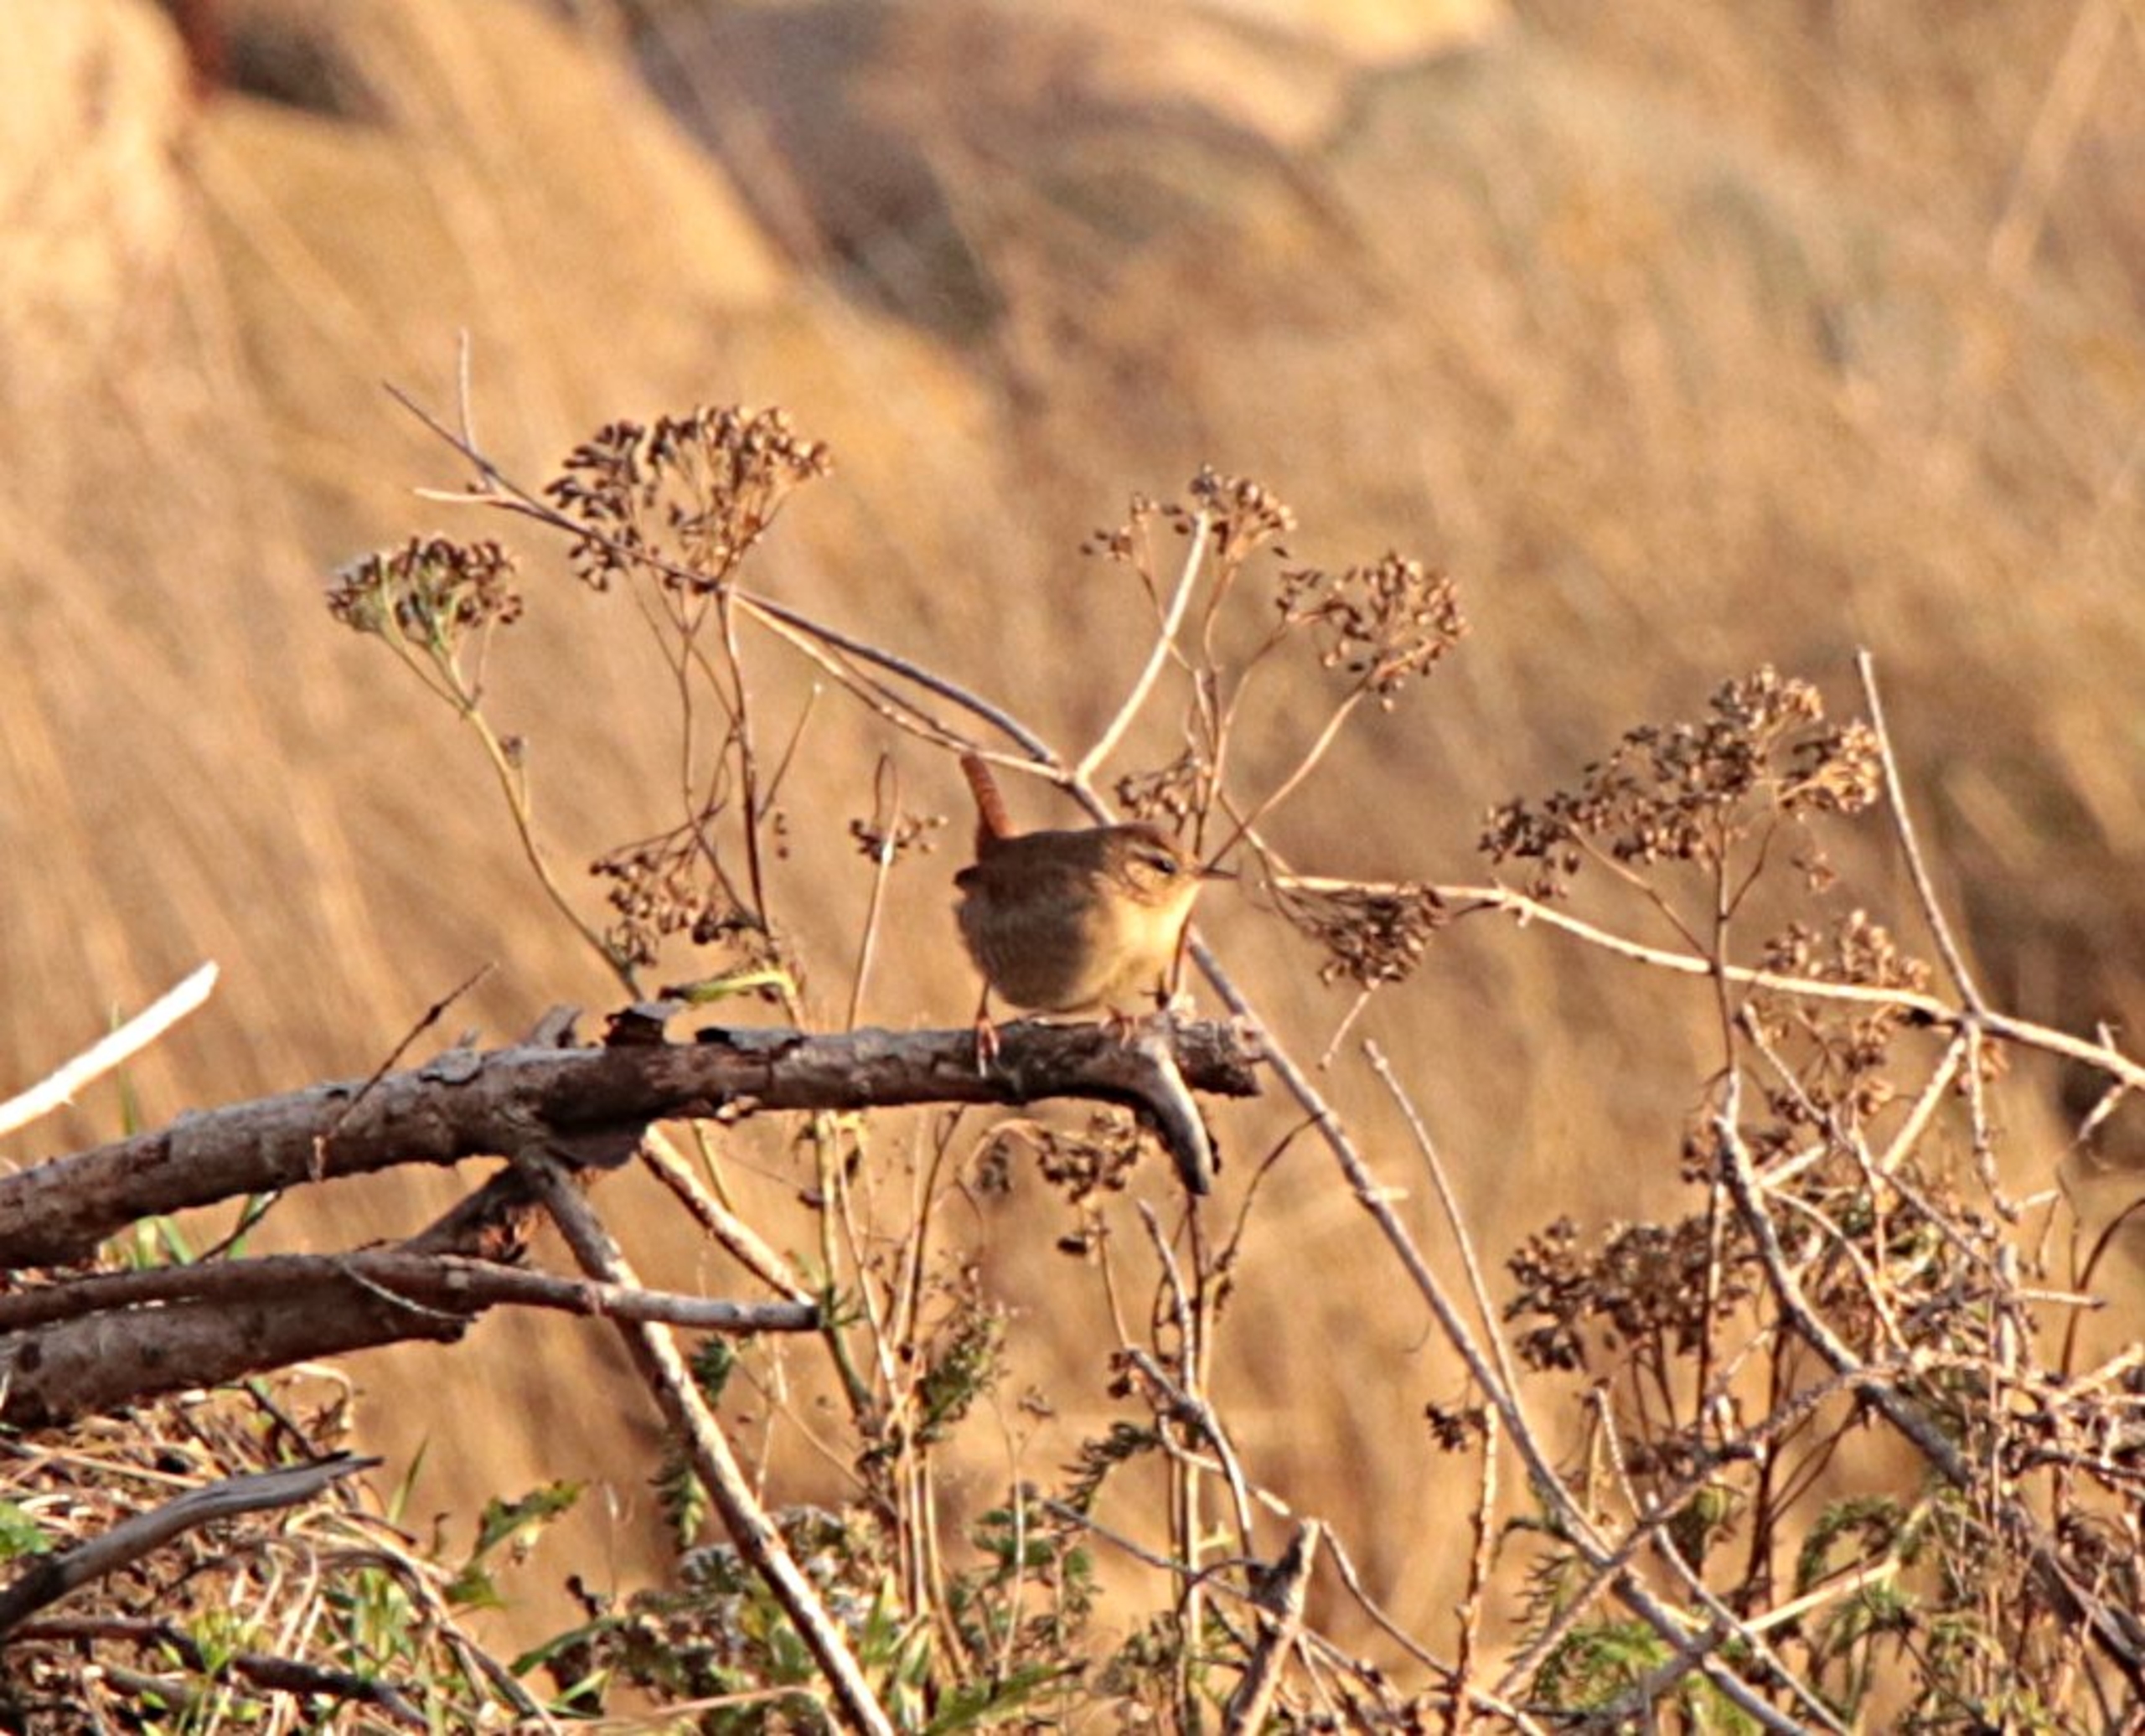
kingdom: Animalia
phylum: Chordata
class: Aves
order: Passeriformes
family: Troglodytidae
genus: Troglodytes
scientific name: Troglodytes troglodytes
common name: Gærdesmutte
